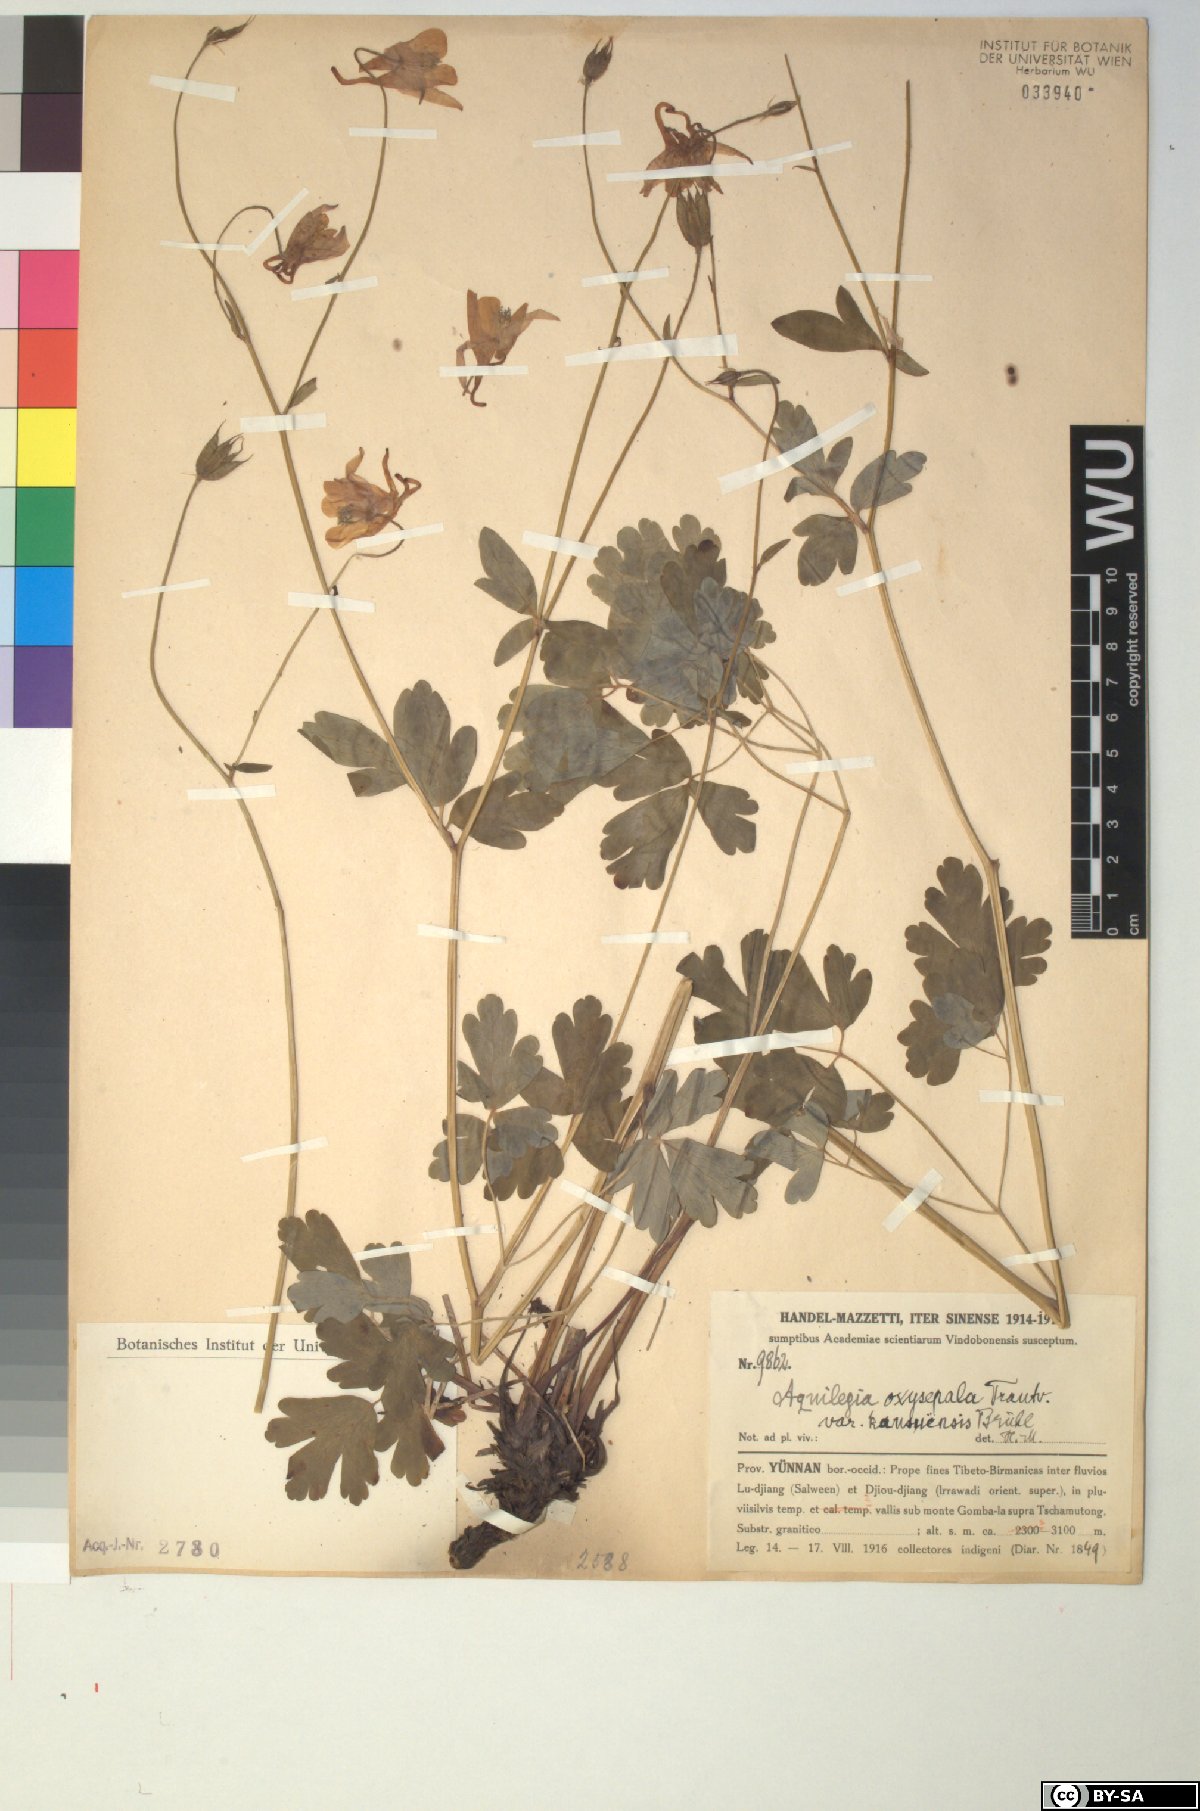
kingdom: Plantae
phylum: Tracheophyta
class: Magnoliopsida
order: Ranunculales
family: Ranunculaceae
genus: Aquilegia
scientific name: Aquilegia kansuensis
